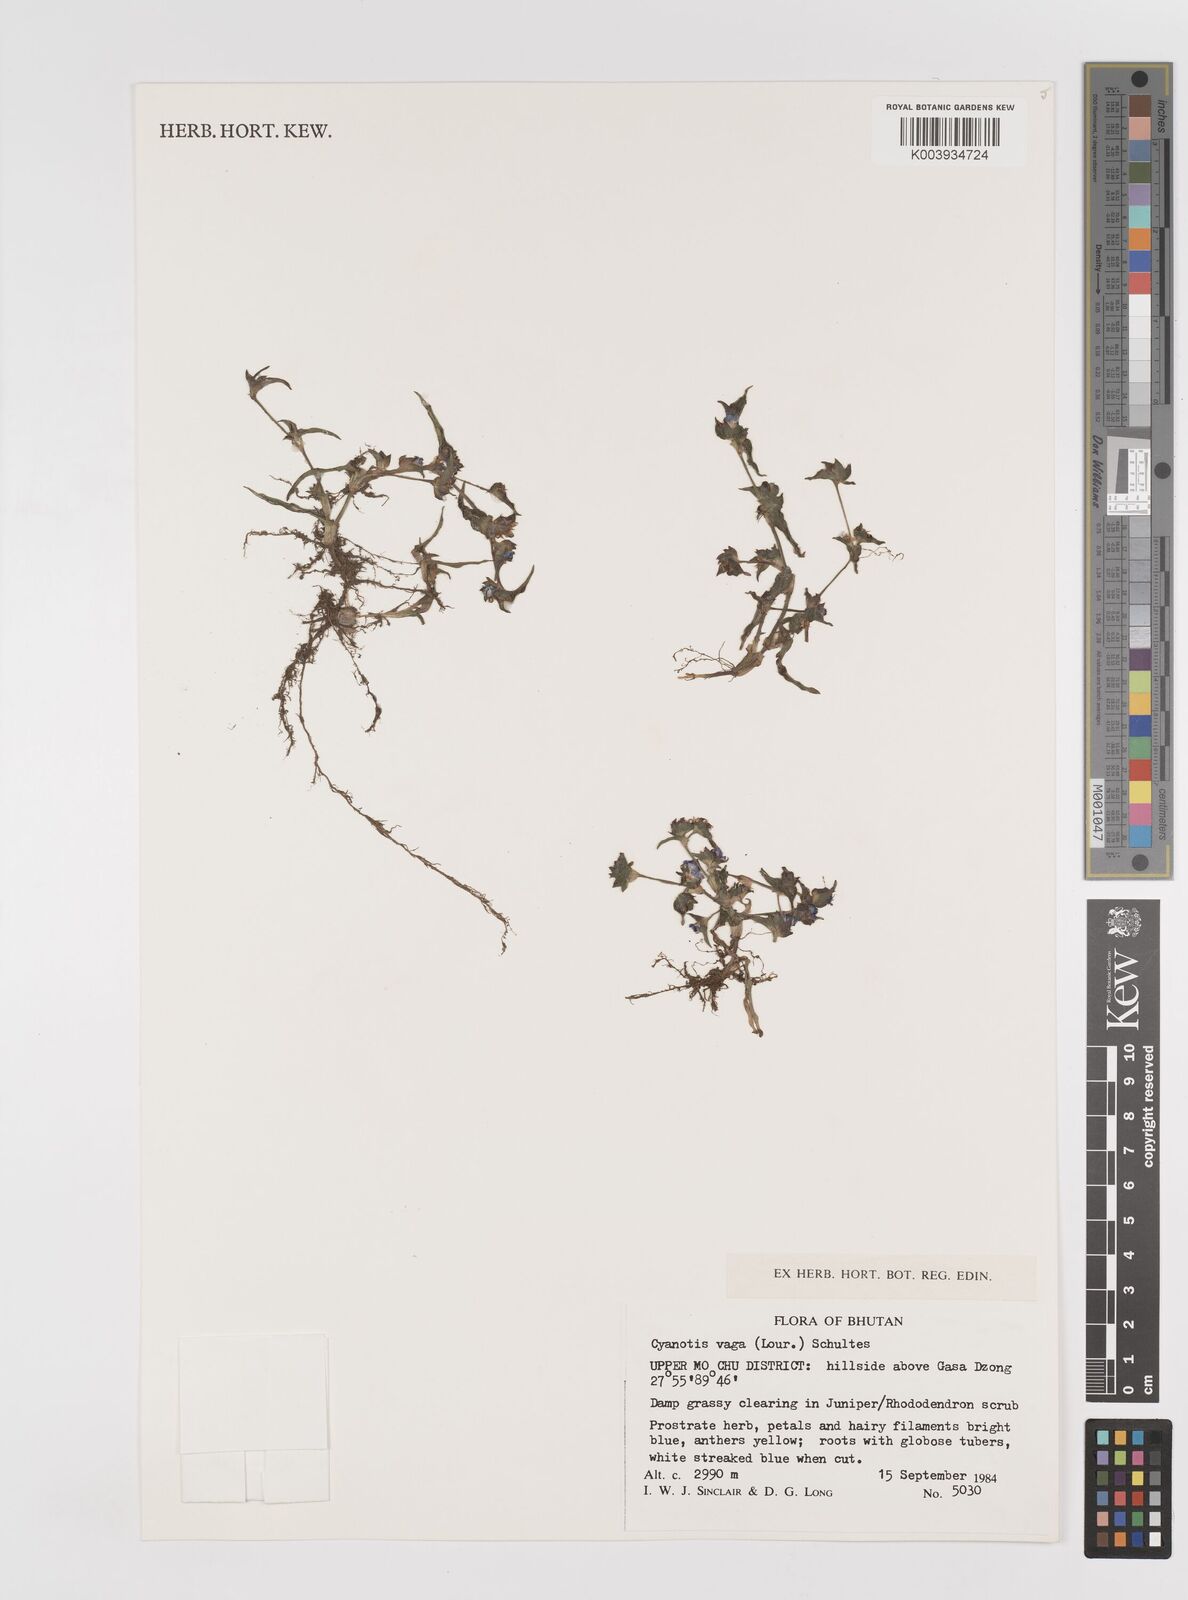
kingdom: Plantae
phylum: Tracheophyta
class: Liliopsida
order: Commelinales
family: Commelinaceae
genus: Cyanotis
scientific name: Cyanotis vaga
